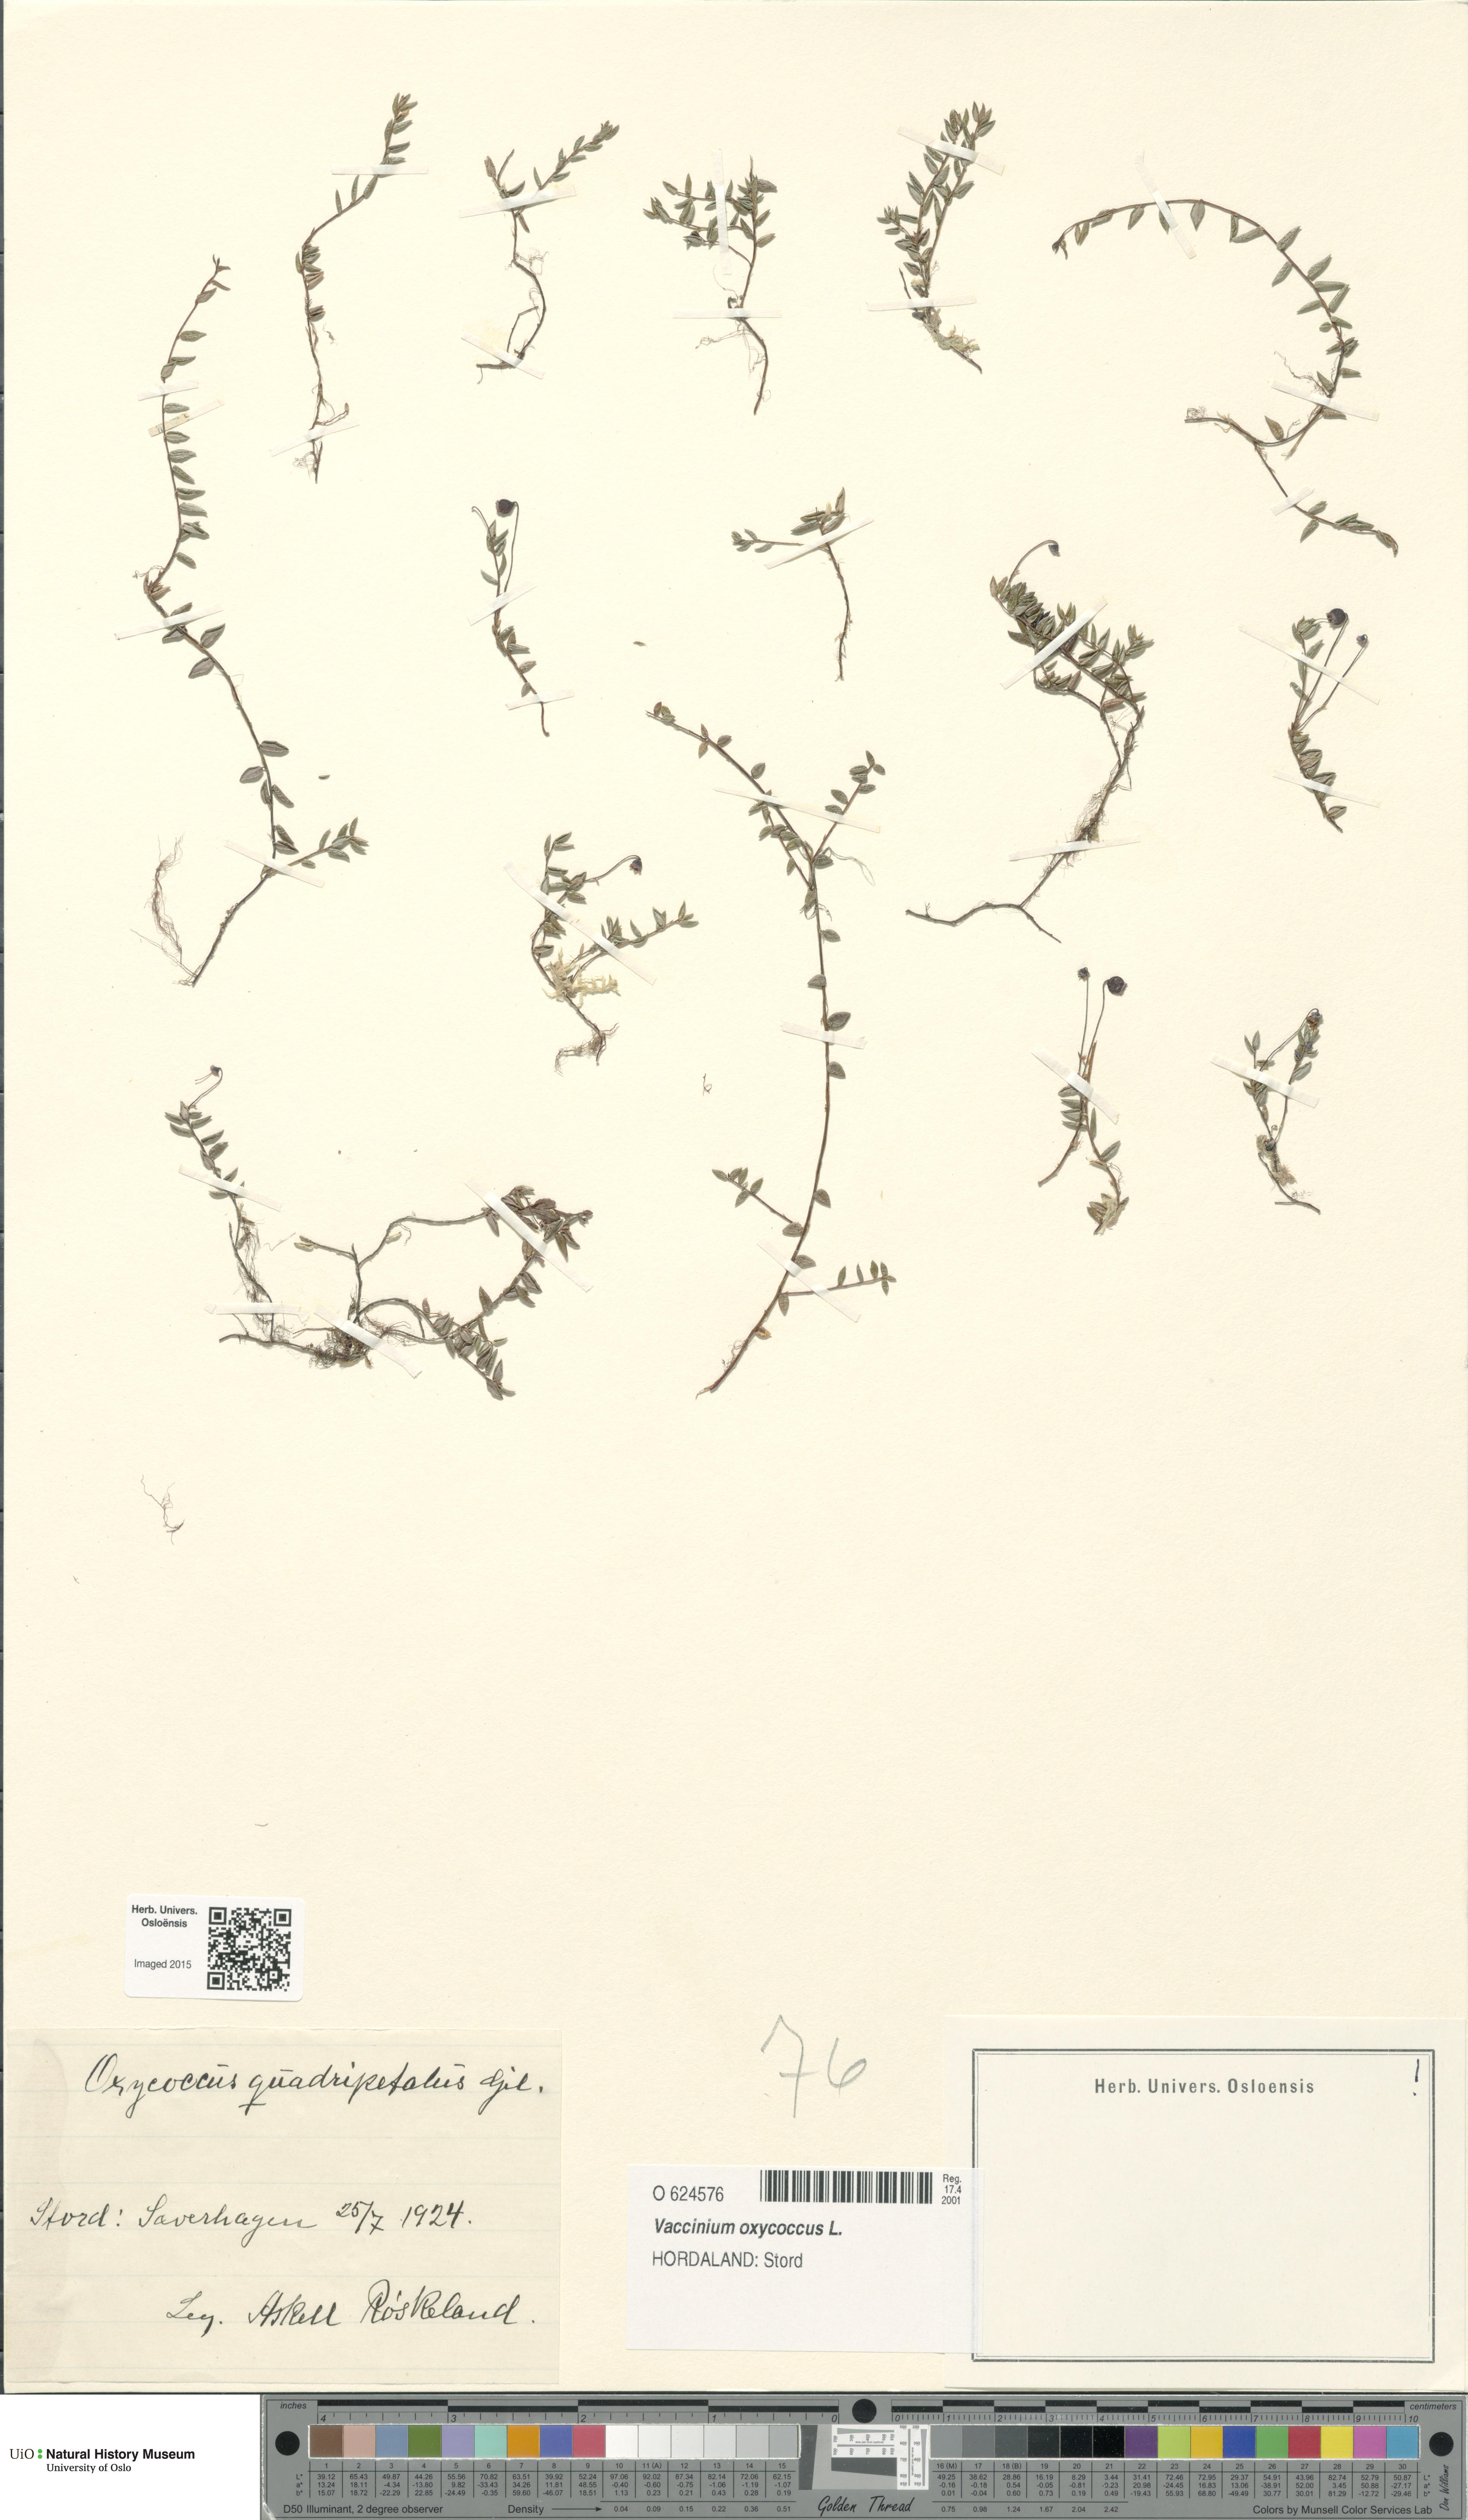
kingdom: Plantae
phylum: Tracheophyta
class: Magnoliopsida
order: Ericales
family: Ericaceae
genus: Vaccinium
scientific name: Vaccinium oxycoccos
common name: Cranberry
